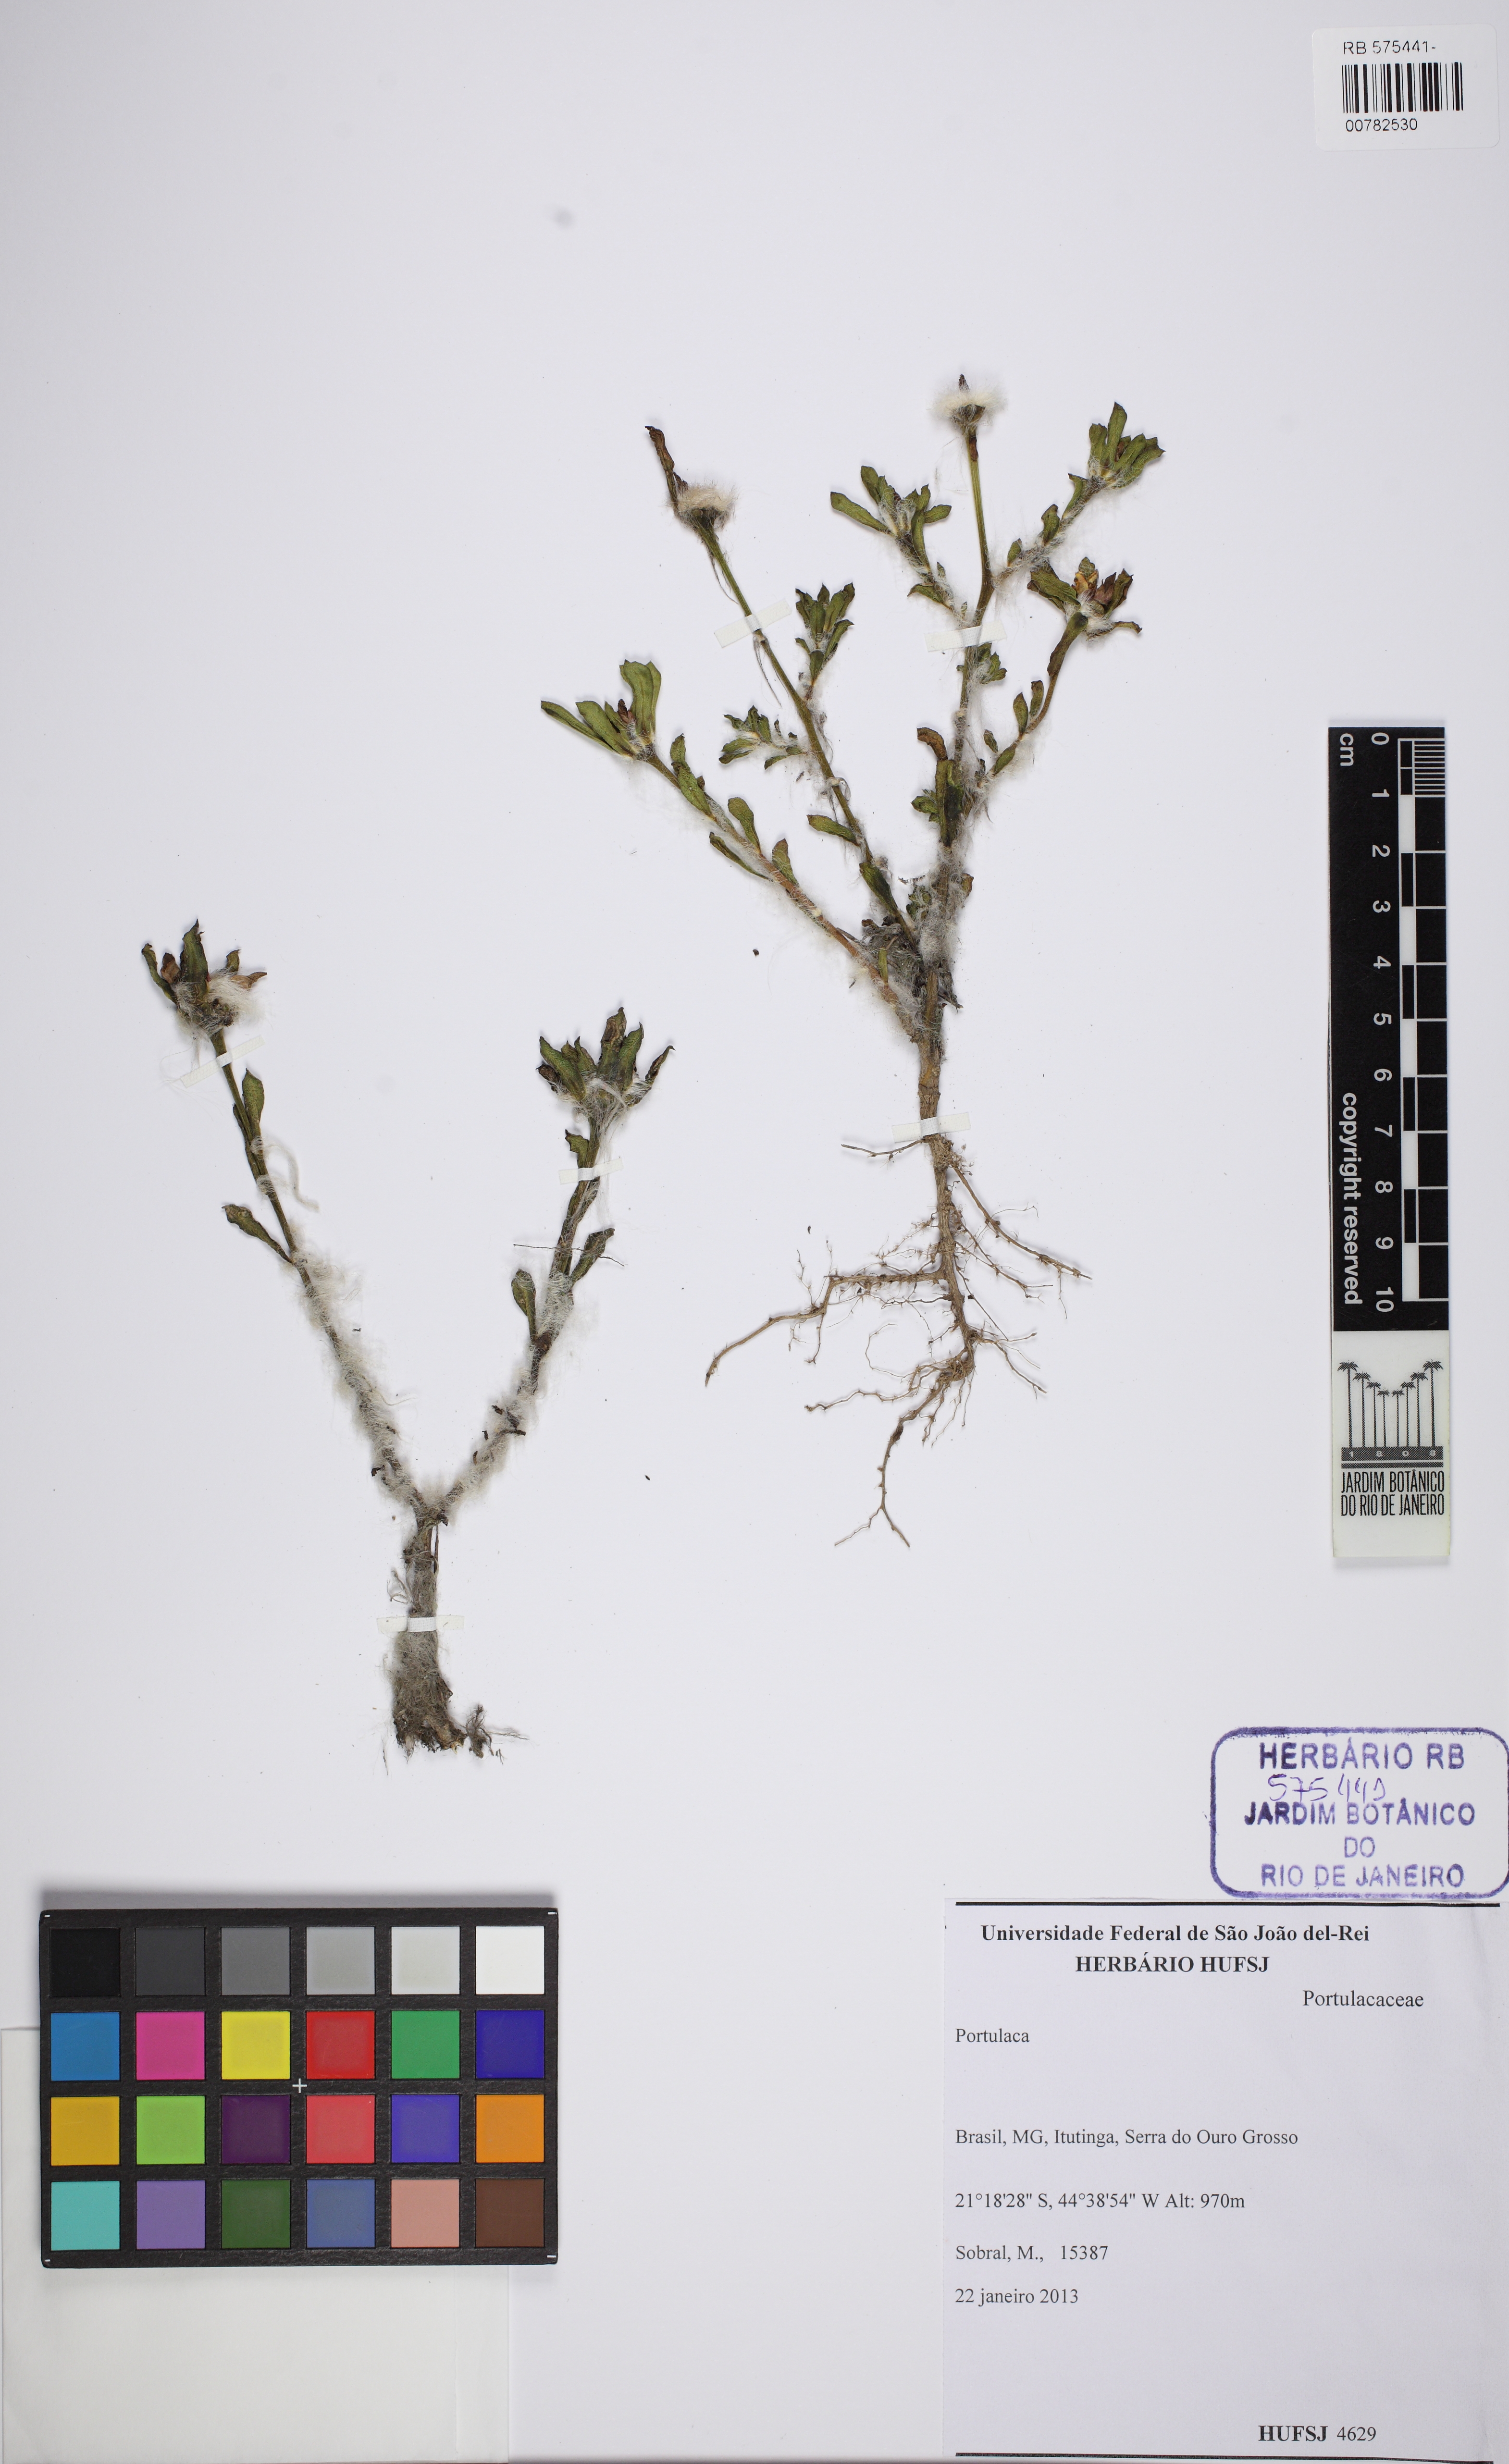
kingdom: Plantae
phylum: Tracheophyta
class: Magnoliopsida
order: Caryophyllales
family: Portulacaceae
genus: Portulaca
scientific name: Portulaca
